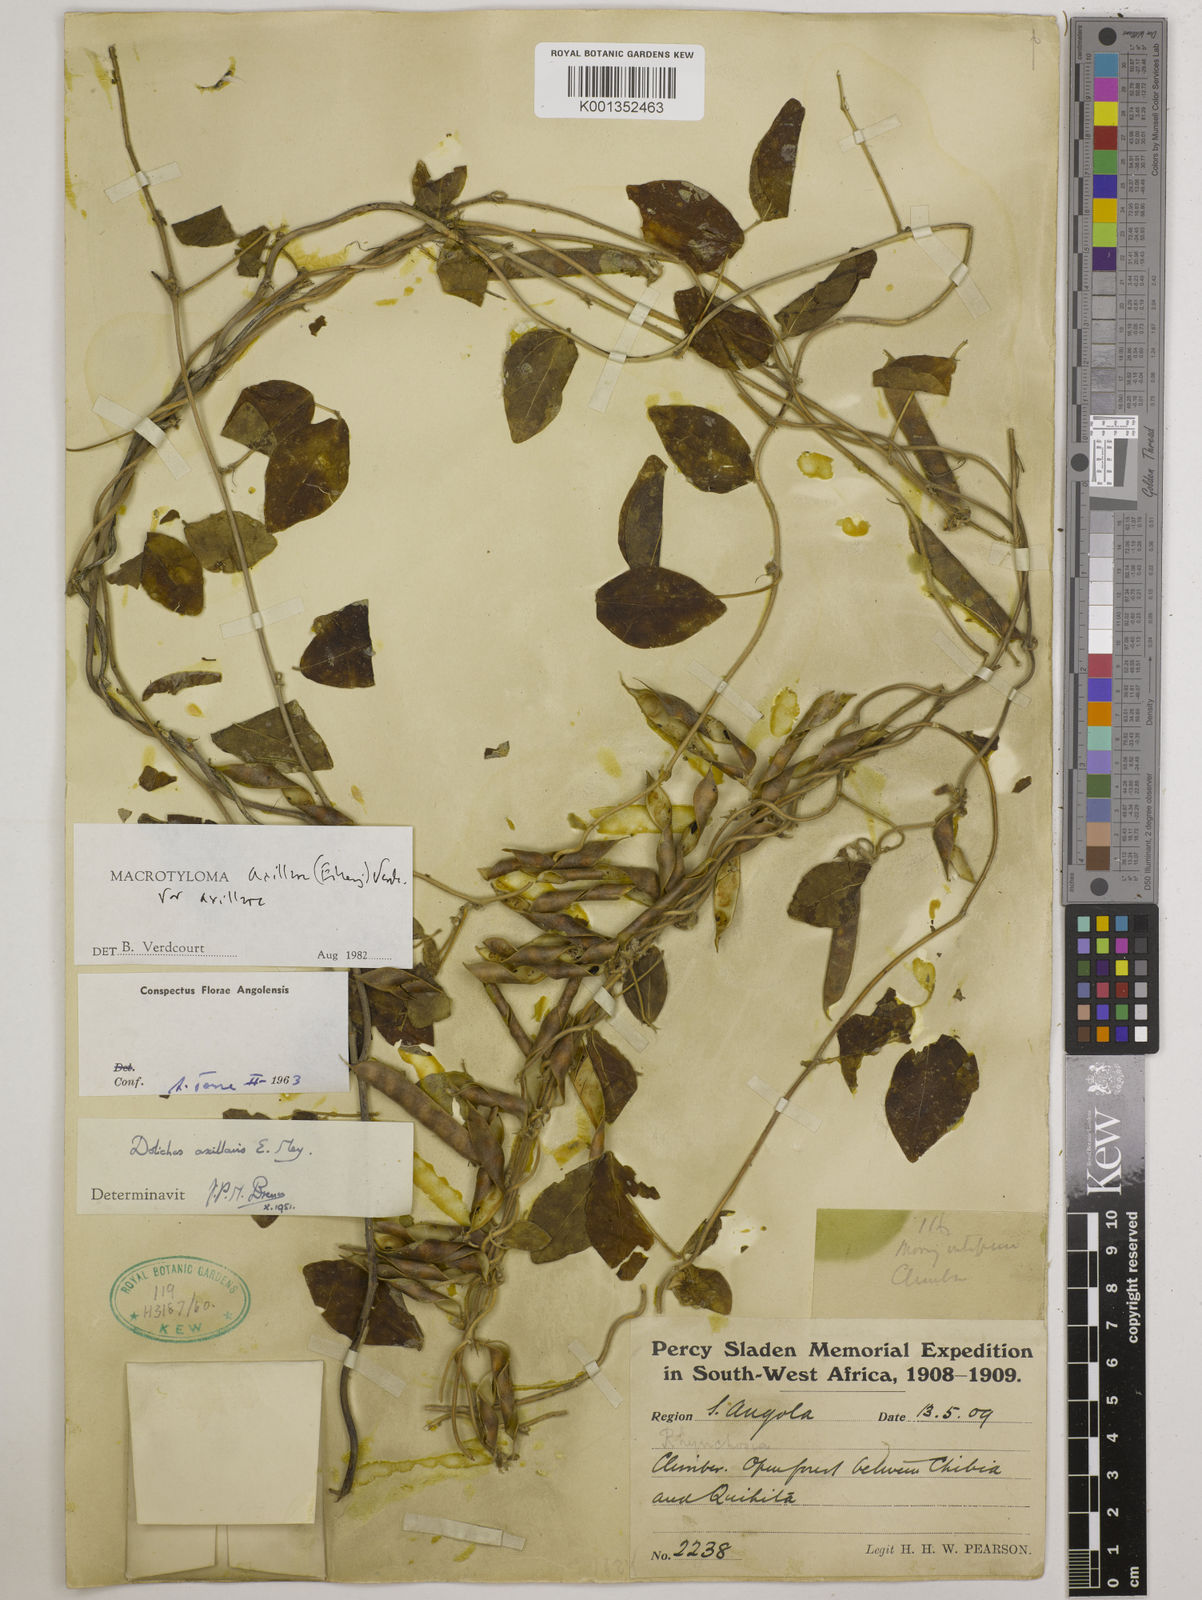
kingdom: Plantae
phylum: Tracheophyta
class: Magnoliopsida
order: Fabales
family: Fabaceae
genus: Macrotyloma
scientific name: Macrotyloma axillare
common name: Perennial horsegram
